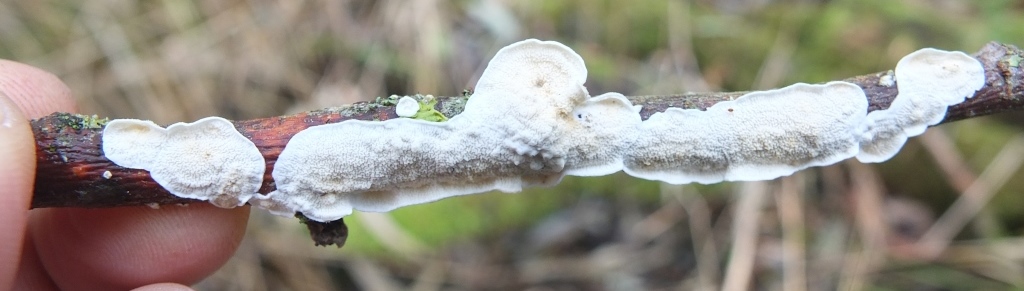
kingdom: Fungi
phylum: Basidiomycota
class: Agaricomycetes
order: Polyporales
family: Irpicaceae
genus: Byssomerulius
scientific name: Byssomerulius corium
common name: læder-åresvamp
